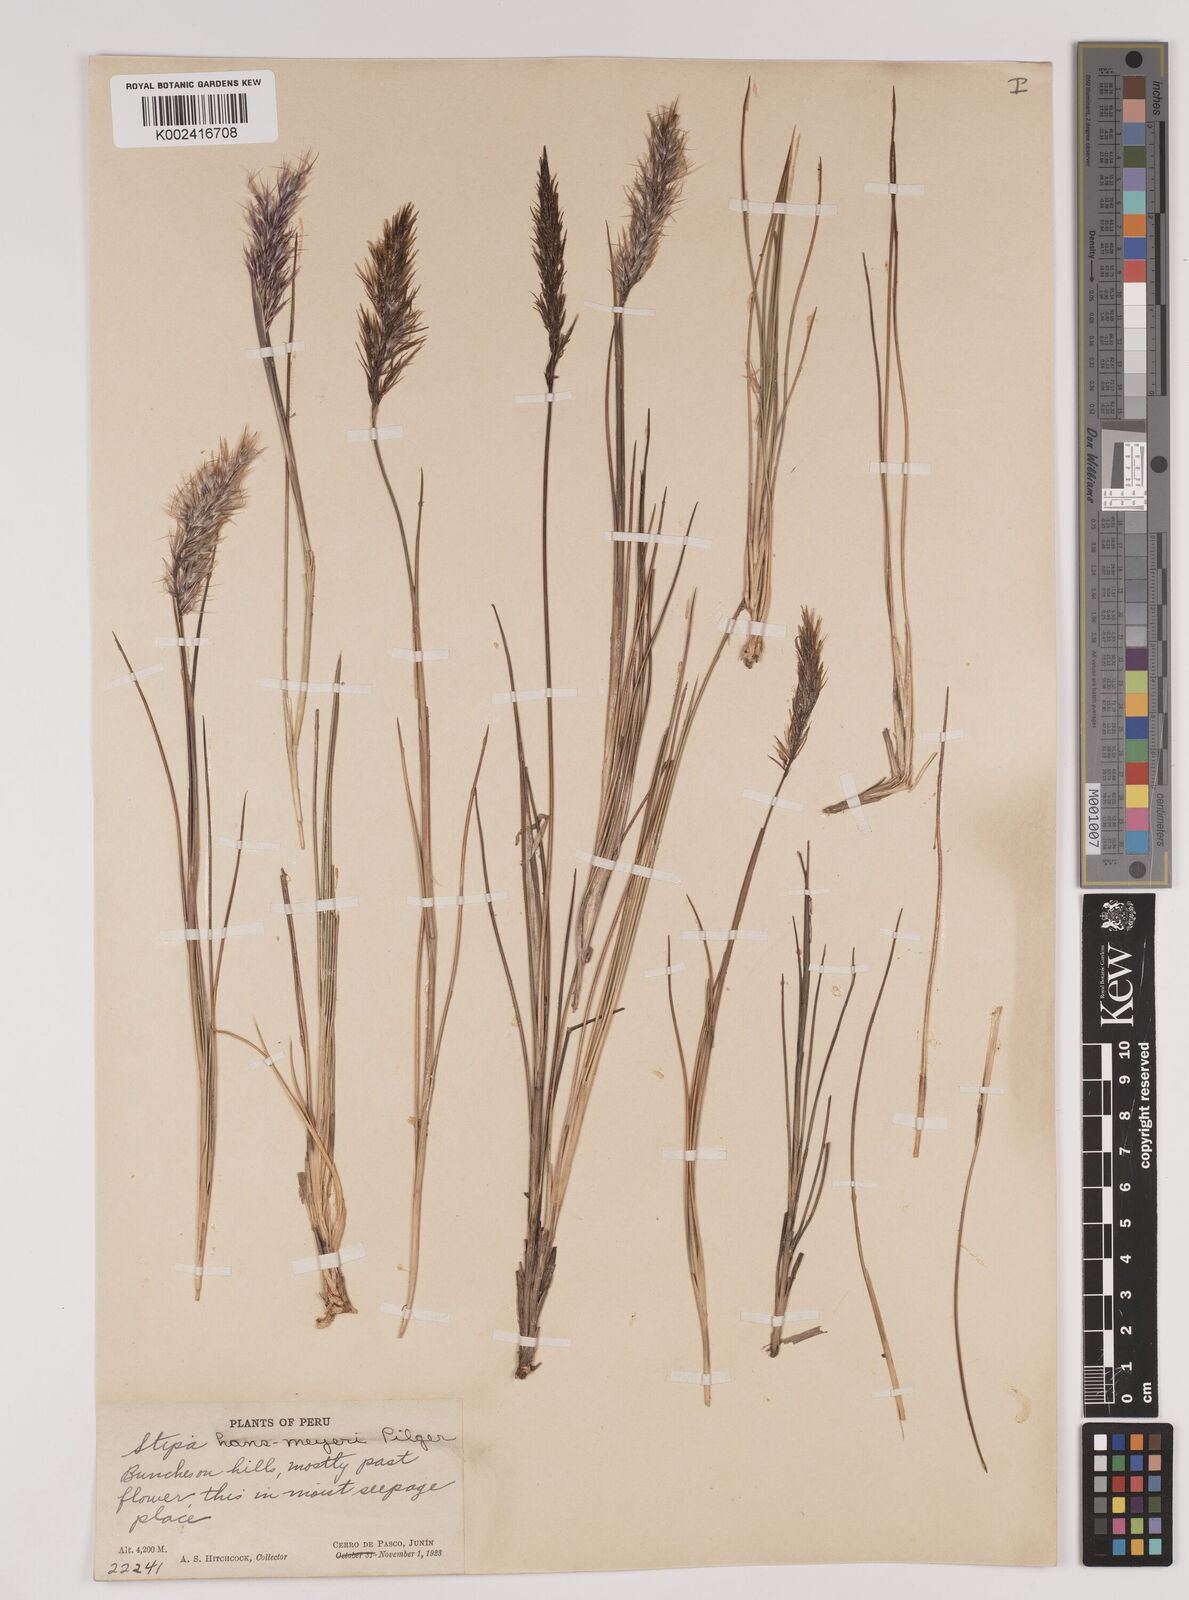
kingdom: Plantae
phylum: Tracheophyta
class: Liliopsida
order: Poales
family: Poaceae
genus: Stipa
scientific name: Stipa hans-meyeri
